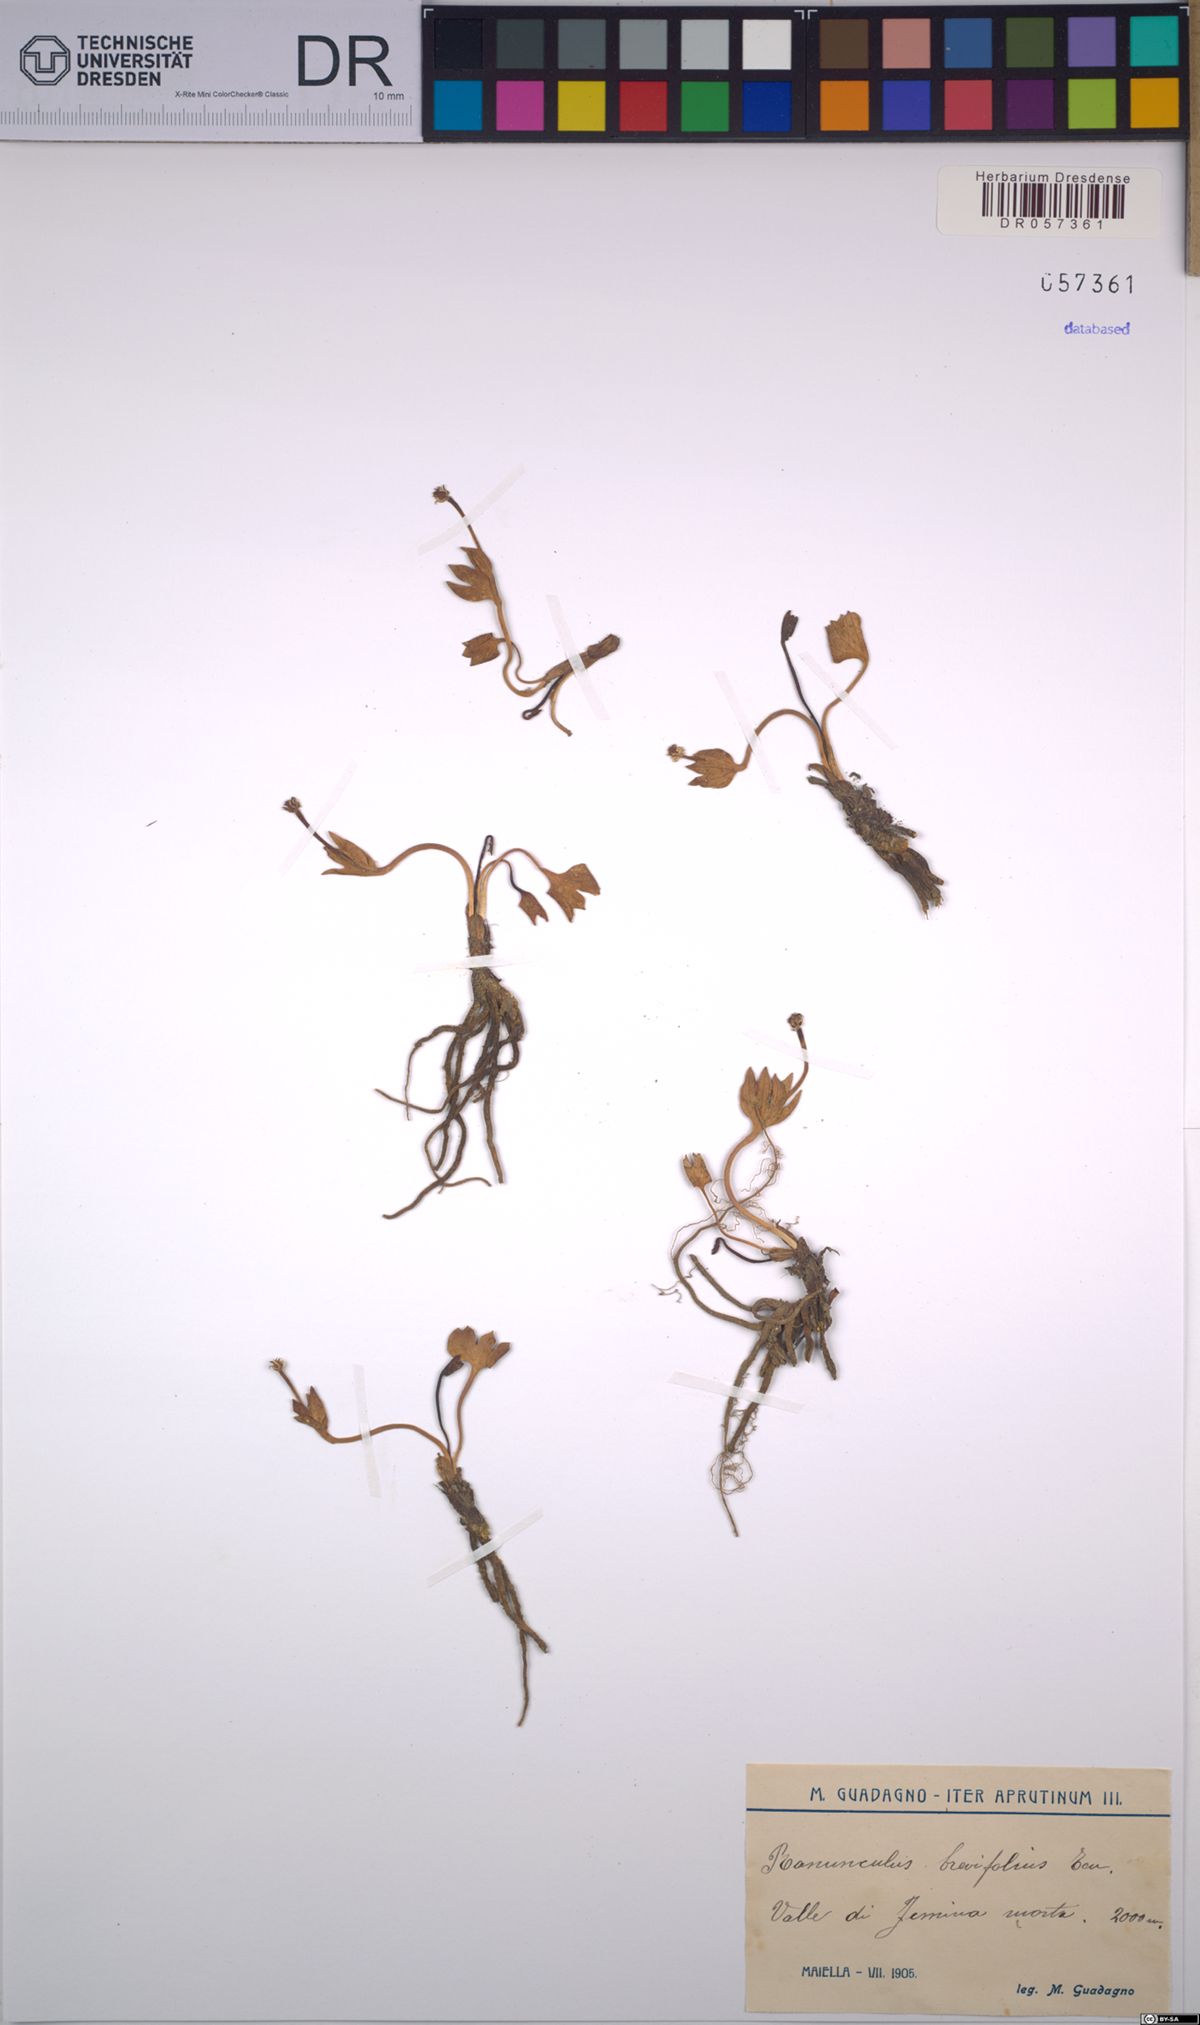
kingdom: Plantae
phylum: Tracheophyta
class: Magnoliopsida
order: Ranunculales
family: Ranunculaceae
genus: Ranunculus
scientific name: Ranunculus brevifolius
